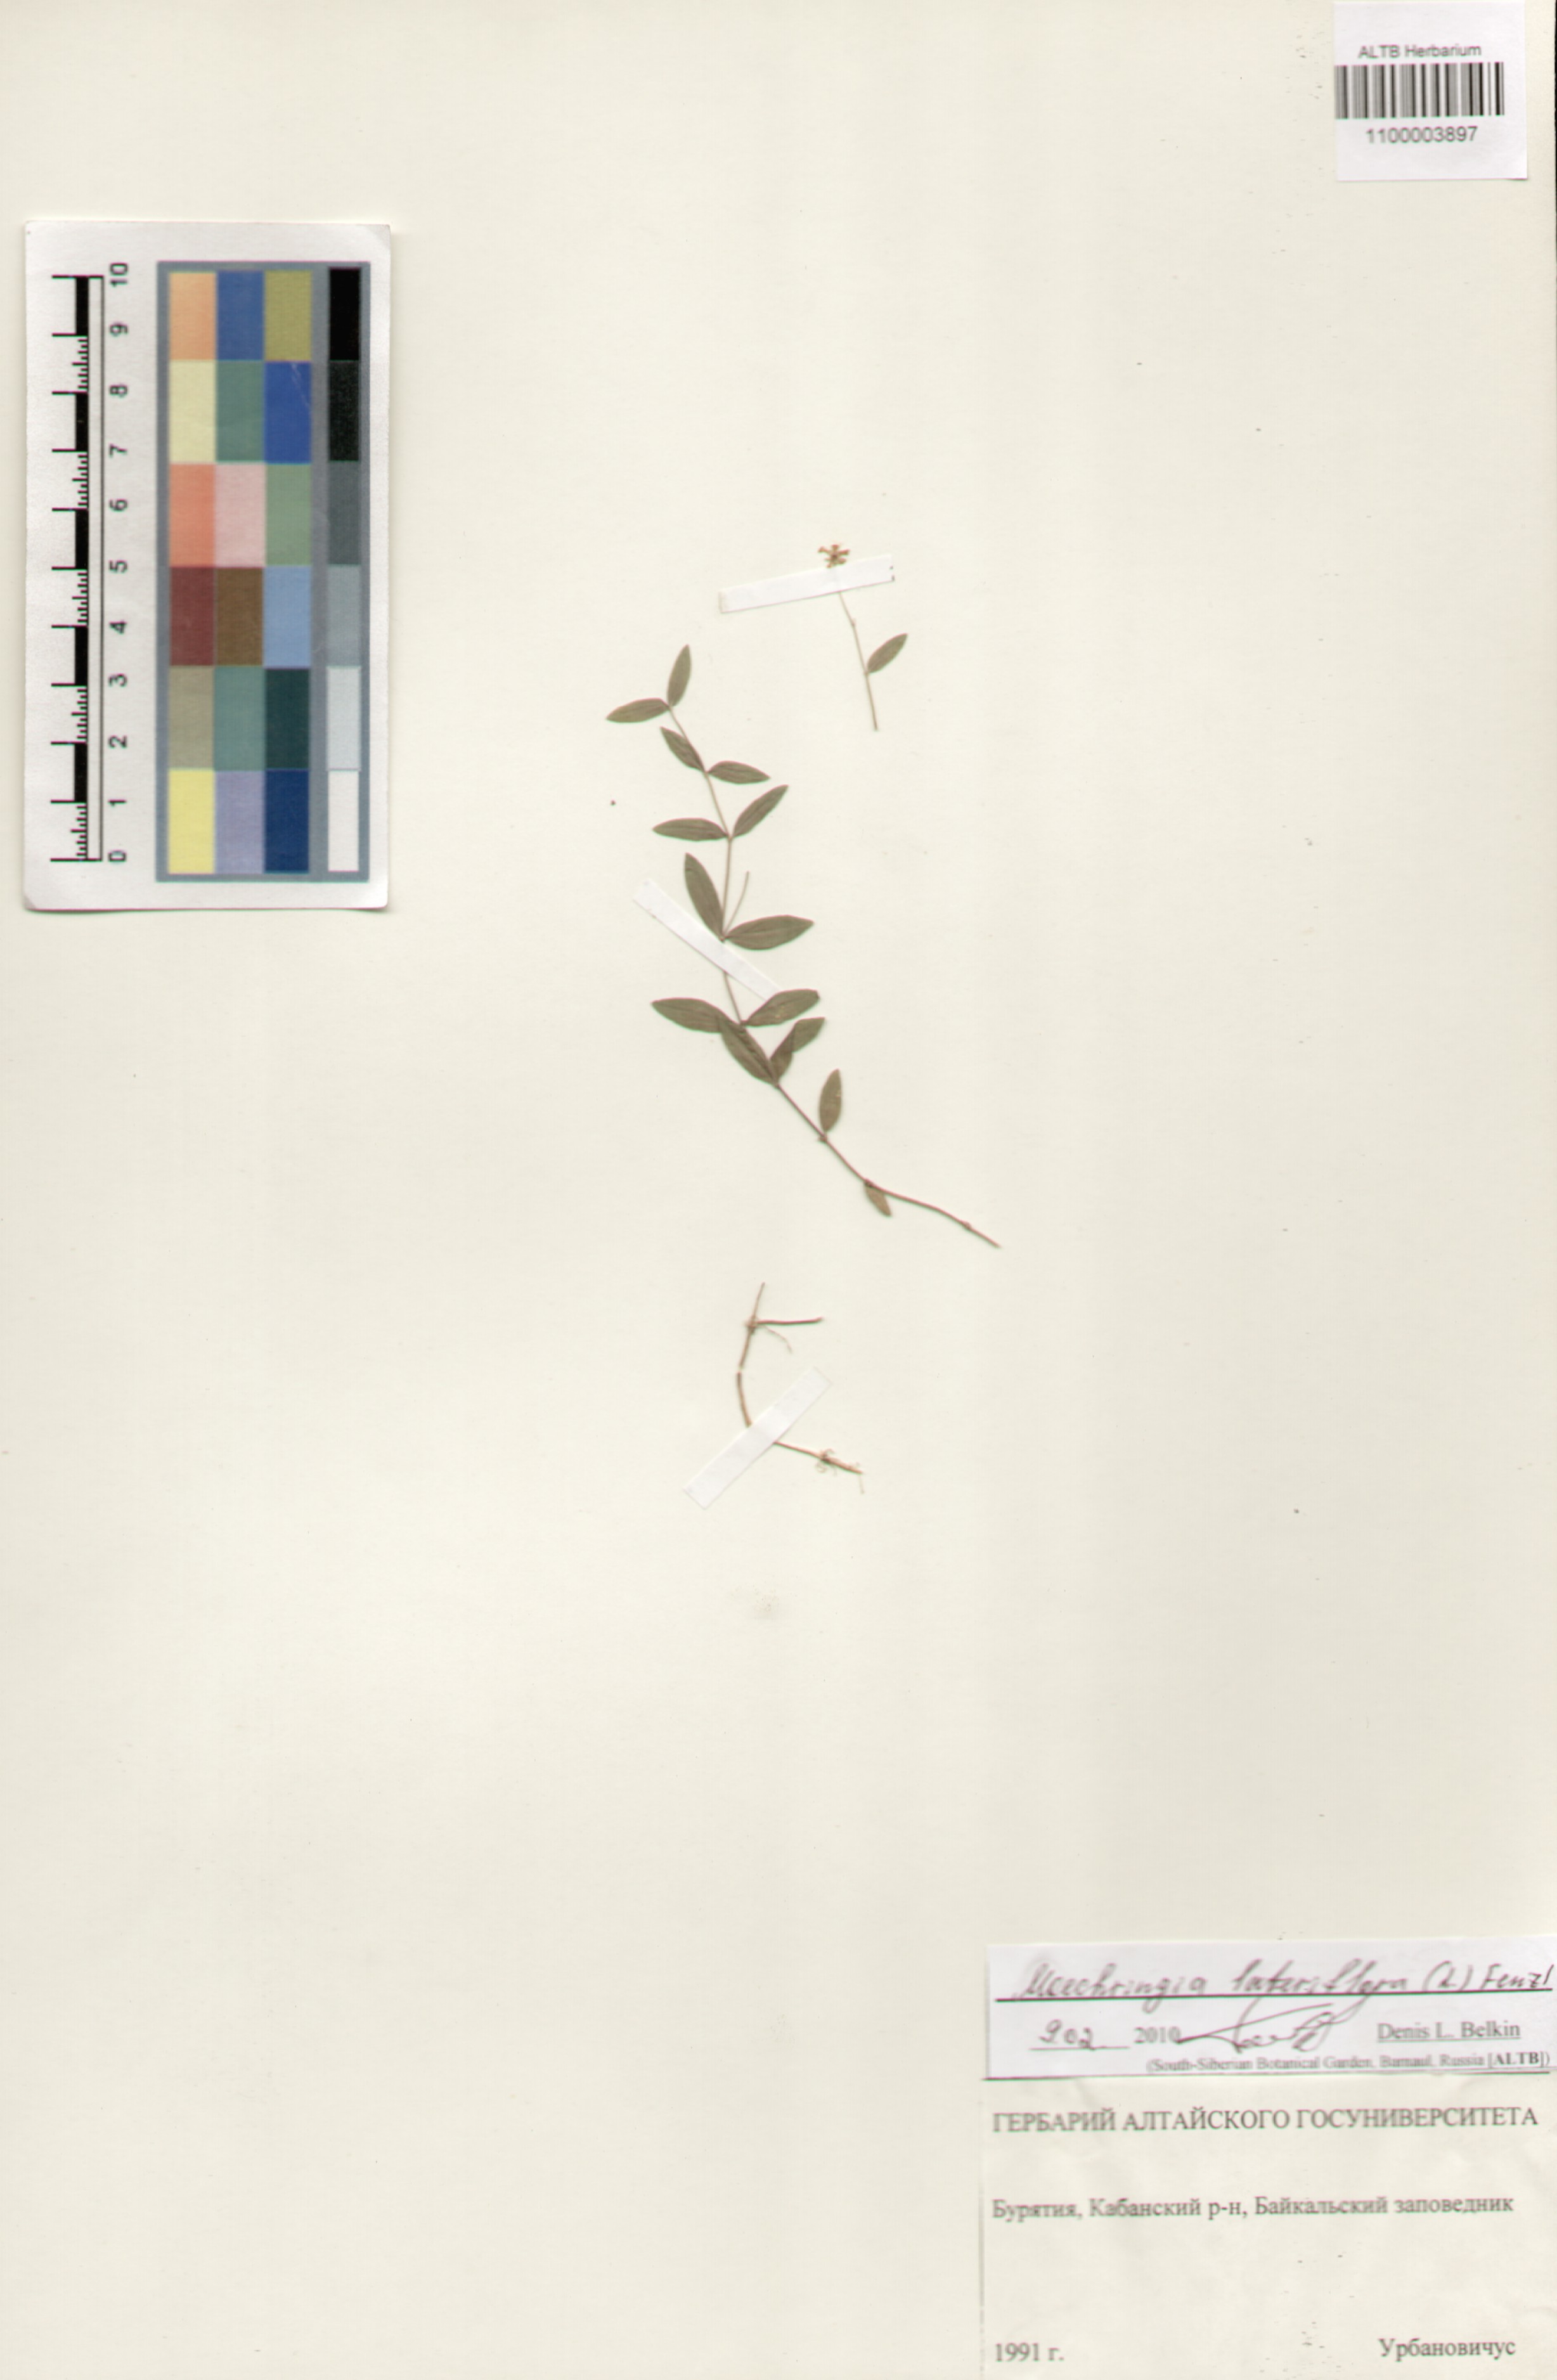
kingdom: Plantae
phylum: Tracheophyta
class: Magnoliopsida
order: Caryophyllales
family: Caryophyllaceae
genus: Moehringia
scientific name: Moehringia lateriflora
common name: Blunt-leaved sandwort
